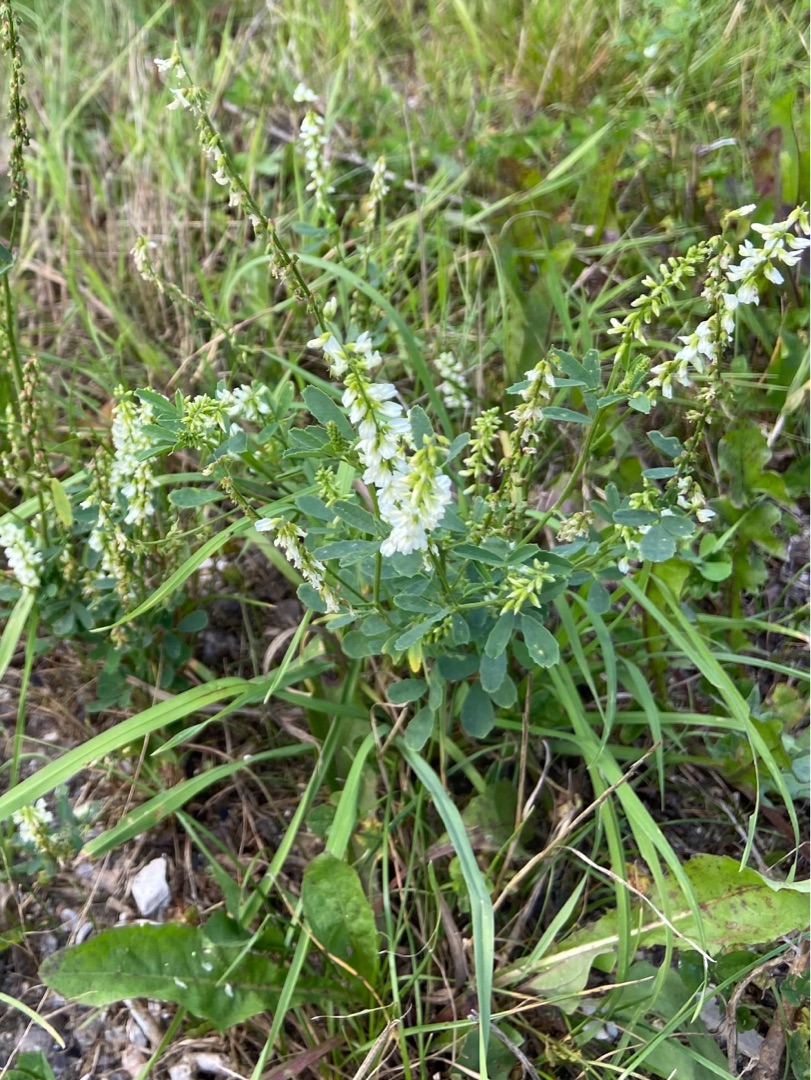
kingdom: Plantae
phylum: Tracheophyta
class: Magnoliopsida
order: Fabales
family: Fabaceae
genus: Melilotus
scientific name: Melilotus albus
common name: Hvid stenkløver
